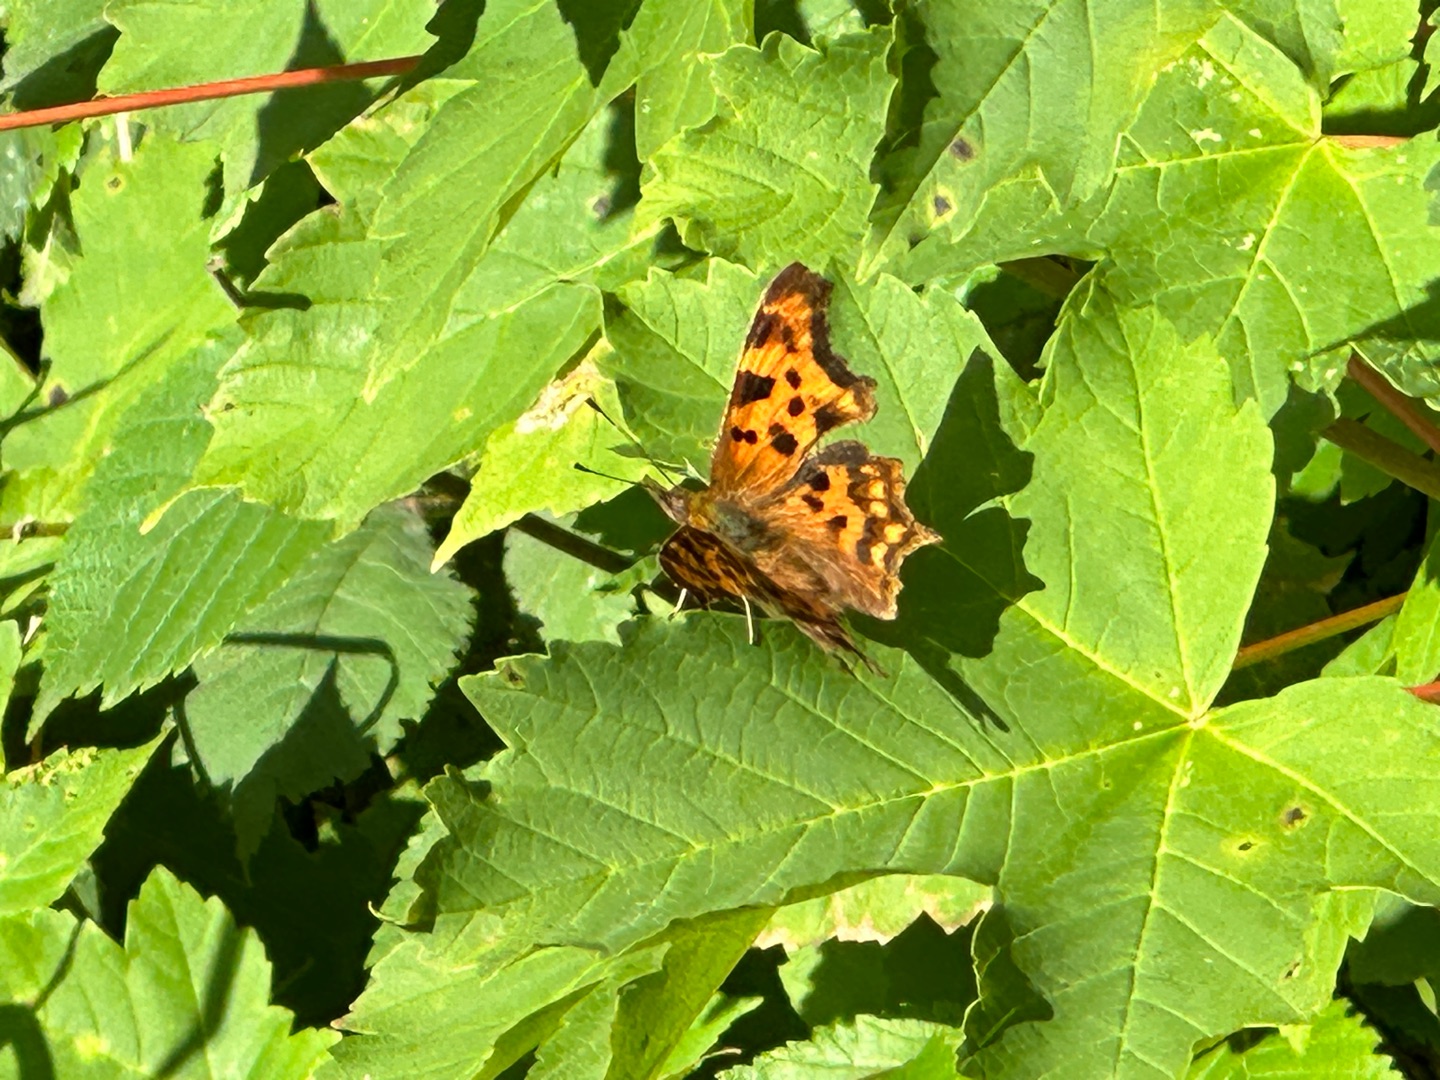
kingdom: Animalia
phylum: Arthropoda
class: Insecta
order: Lepidoptera
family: Nymphalidae
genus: Polygonia
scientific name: Polygonia c-album
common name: Det hvide C
